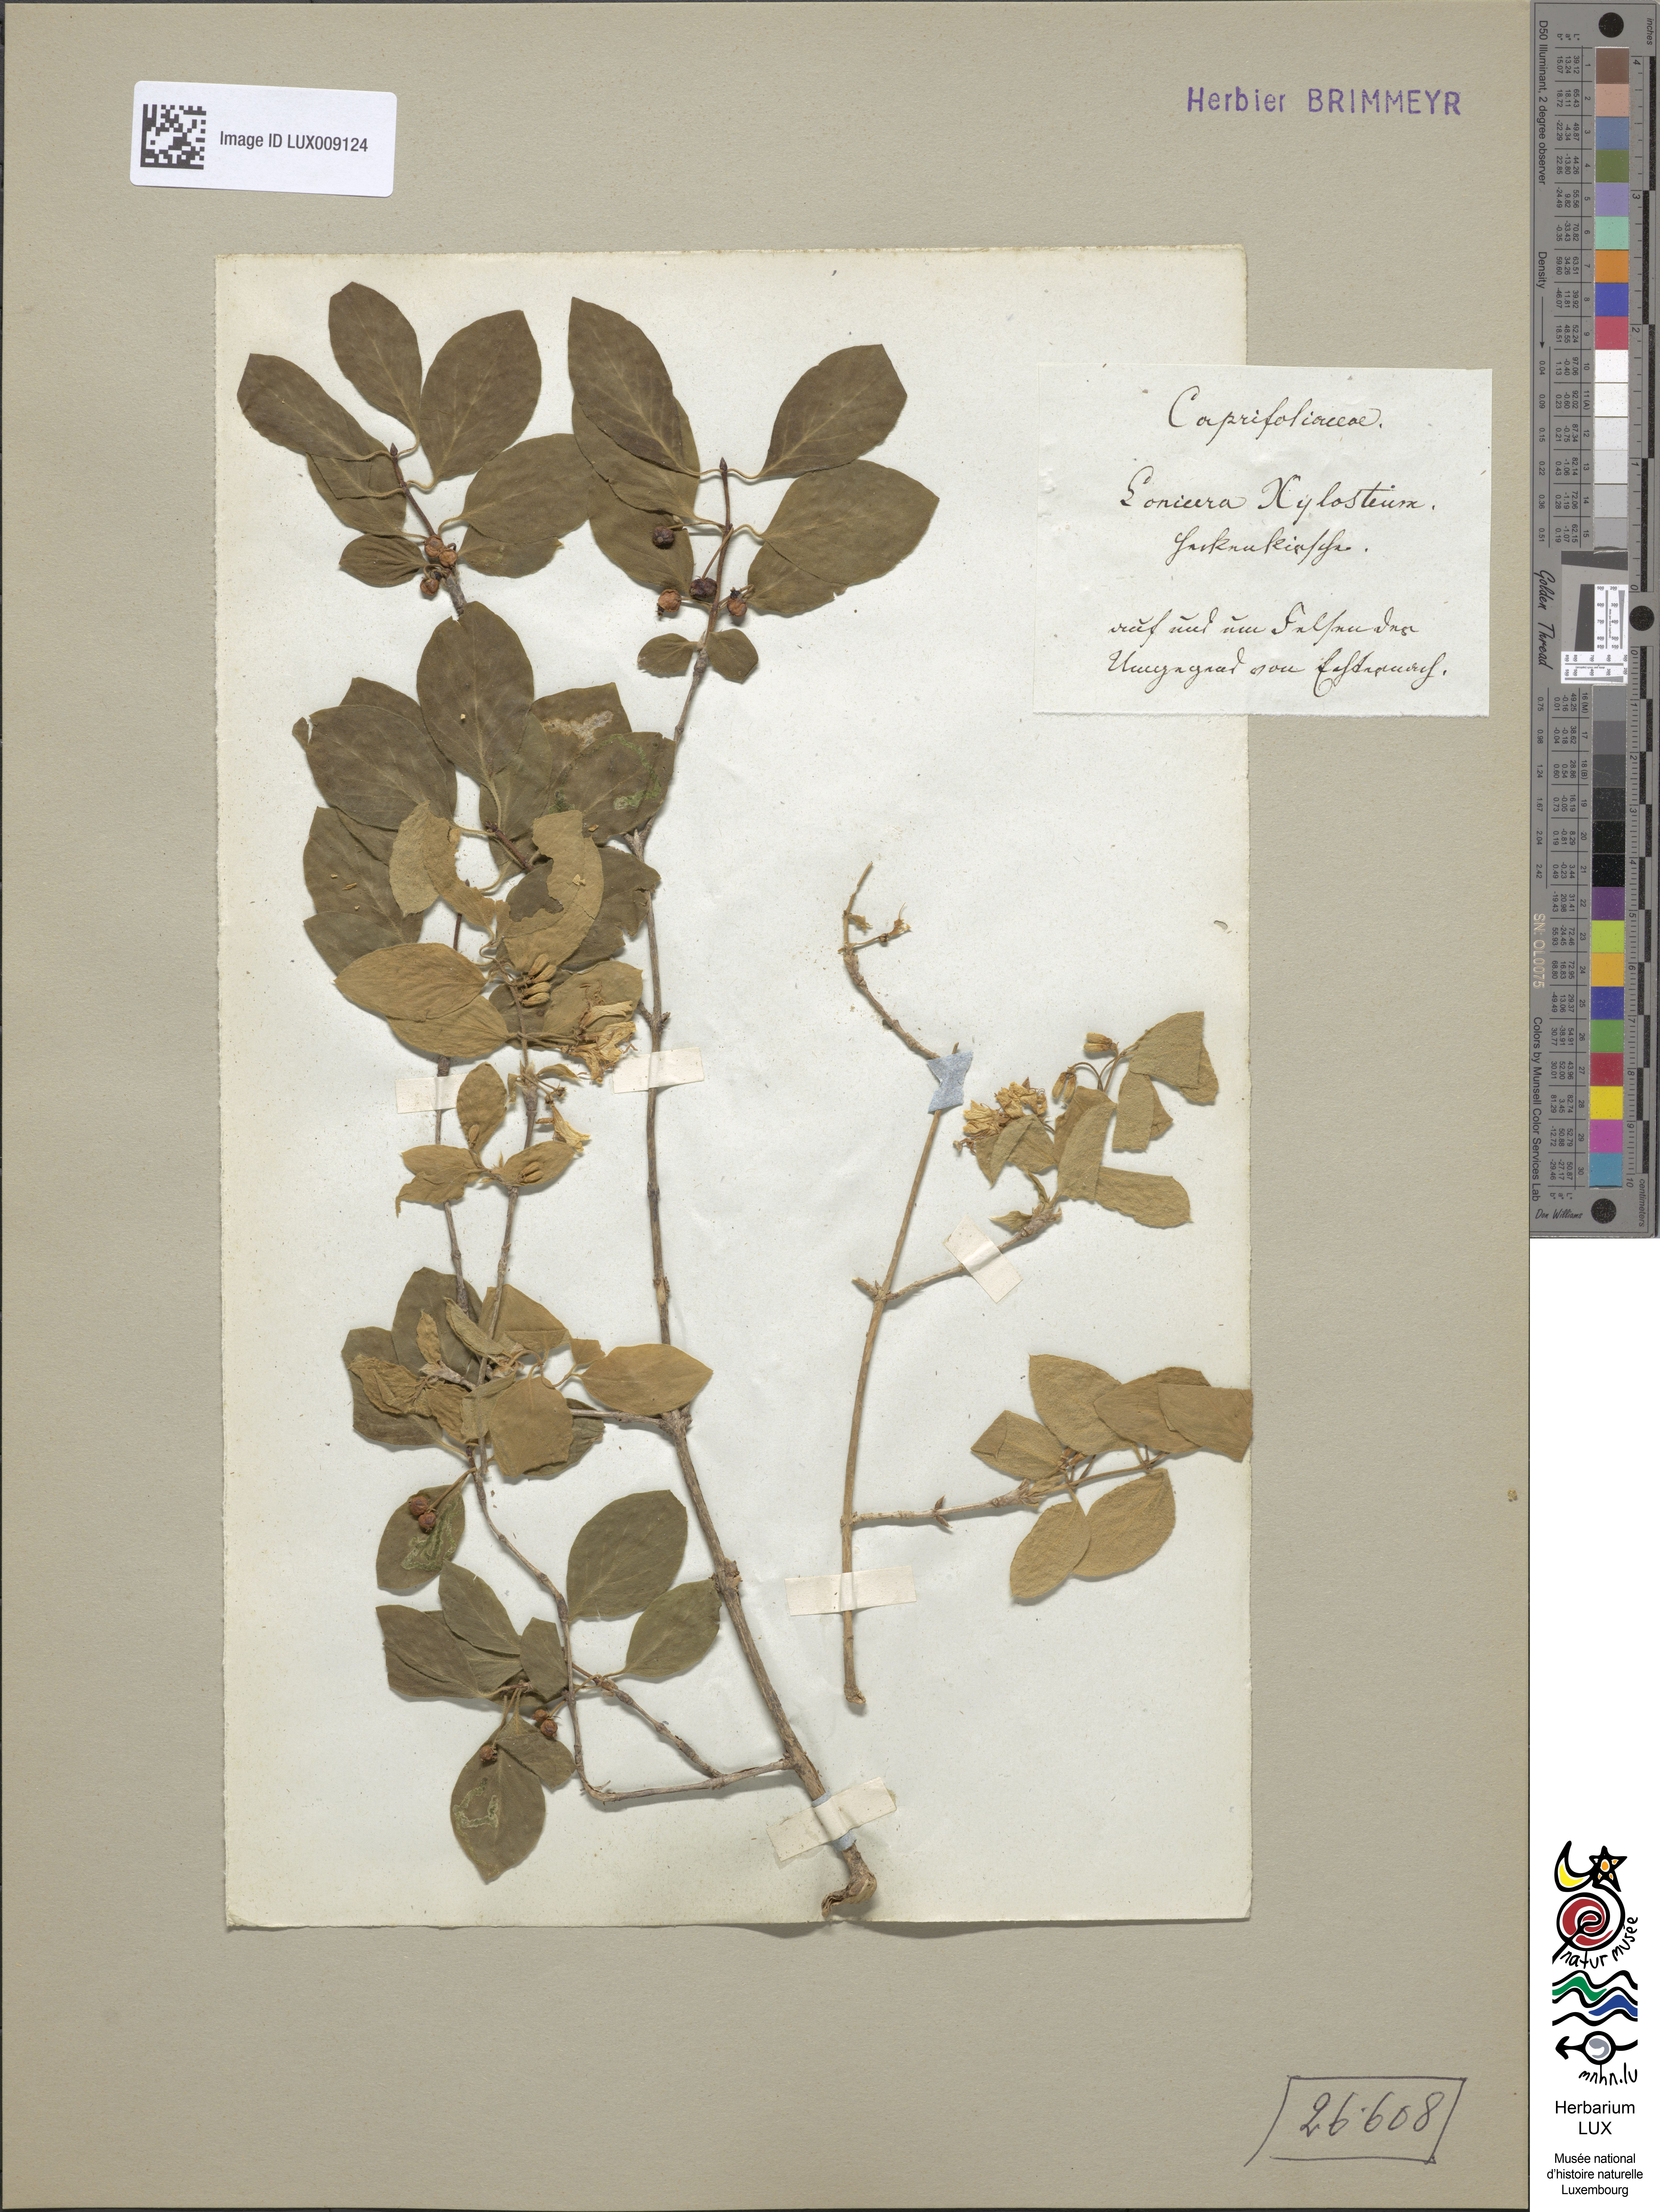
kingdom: Plantae
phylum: Tracheophyta
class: Magnoliopsida
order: Dipsacales
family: Caprifoliaceae
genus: Lonicera
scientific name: Lonicera xylosteum
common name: Fly honeysuckle
